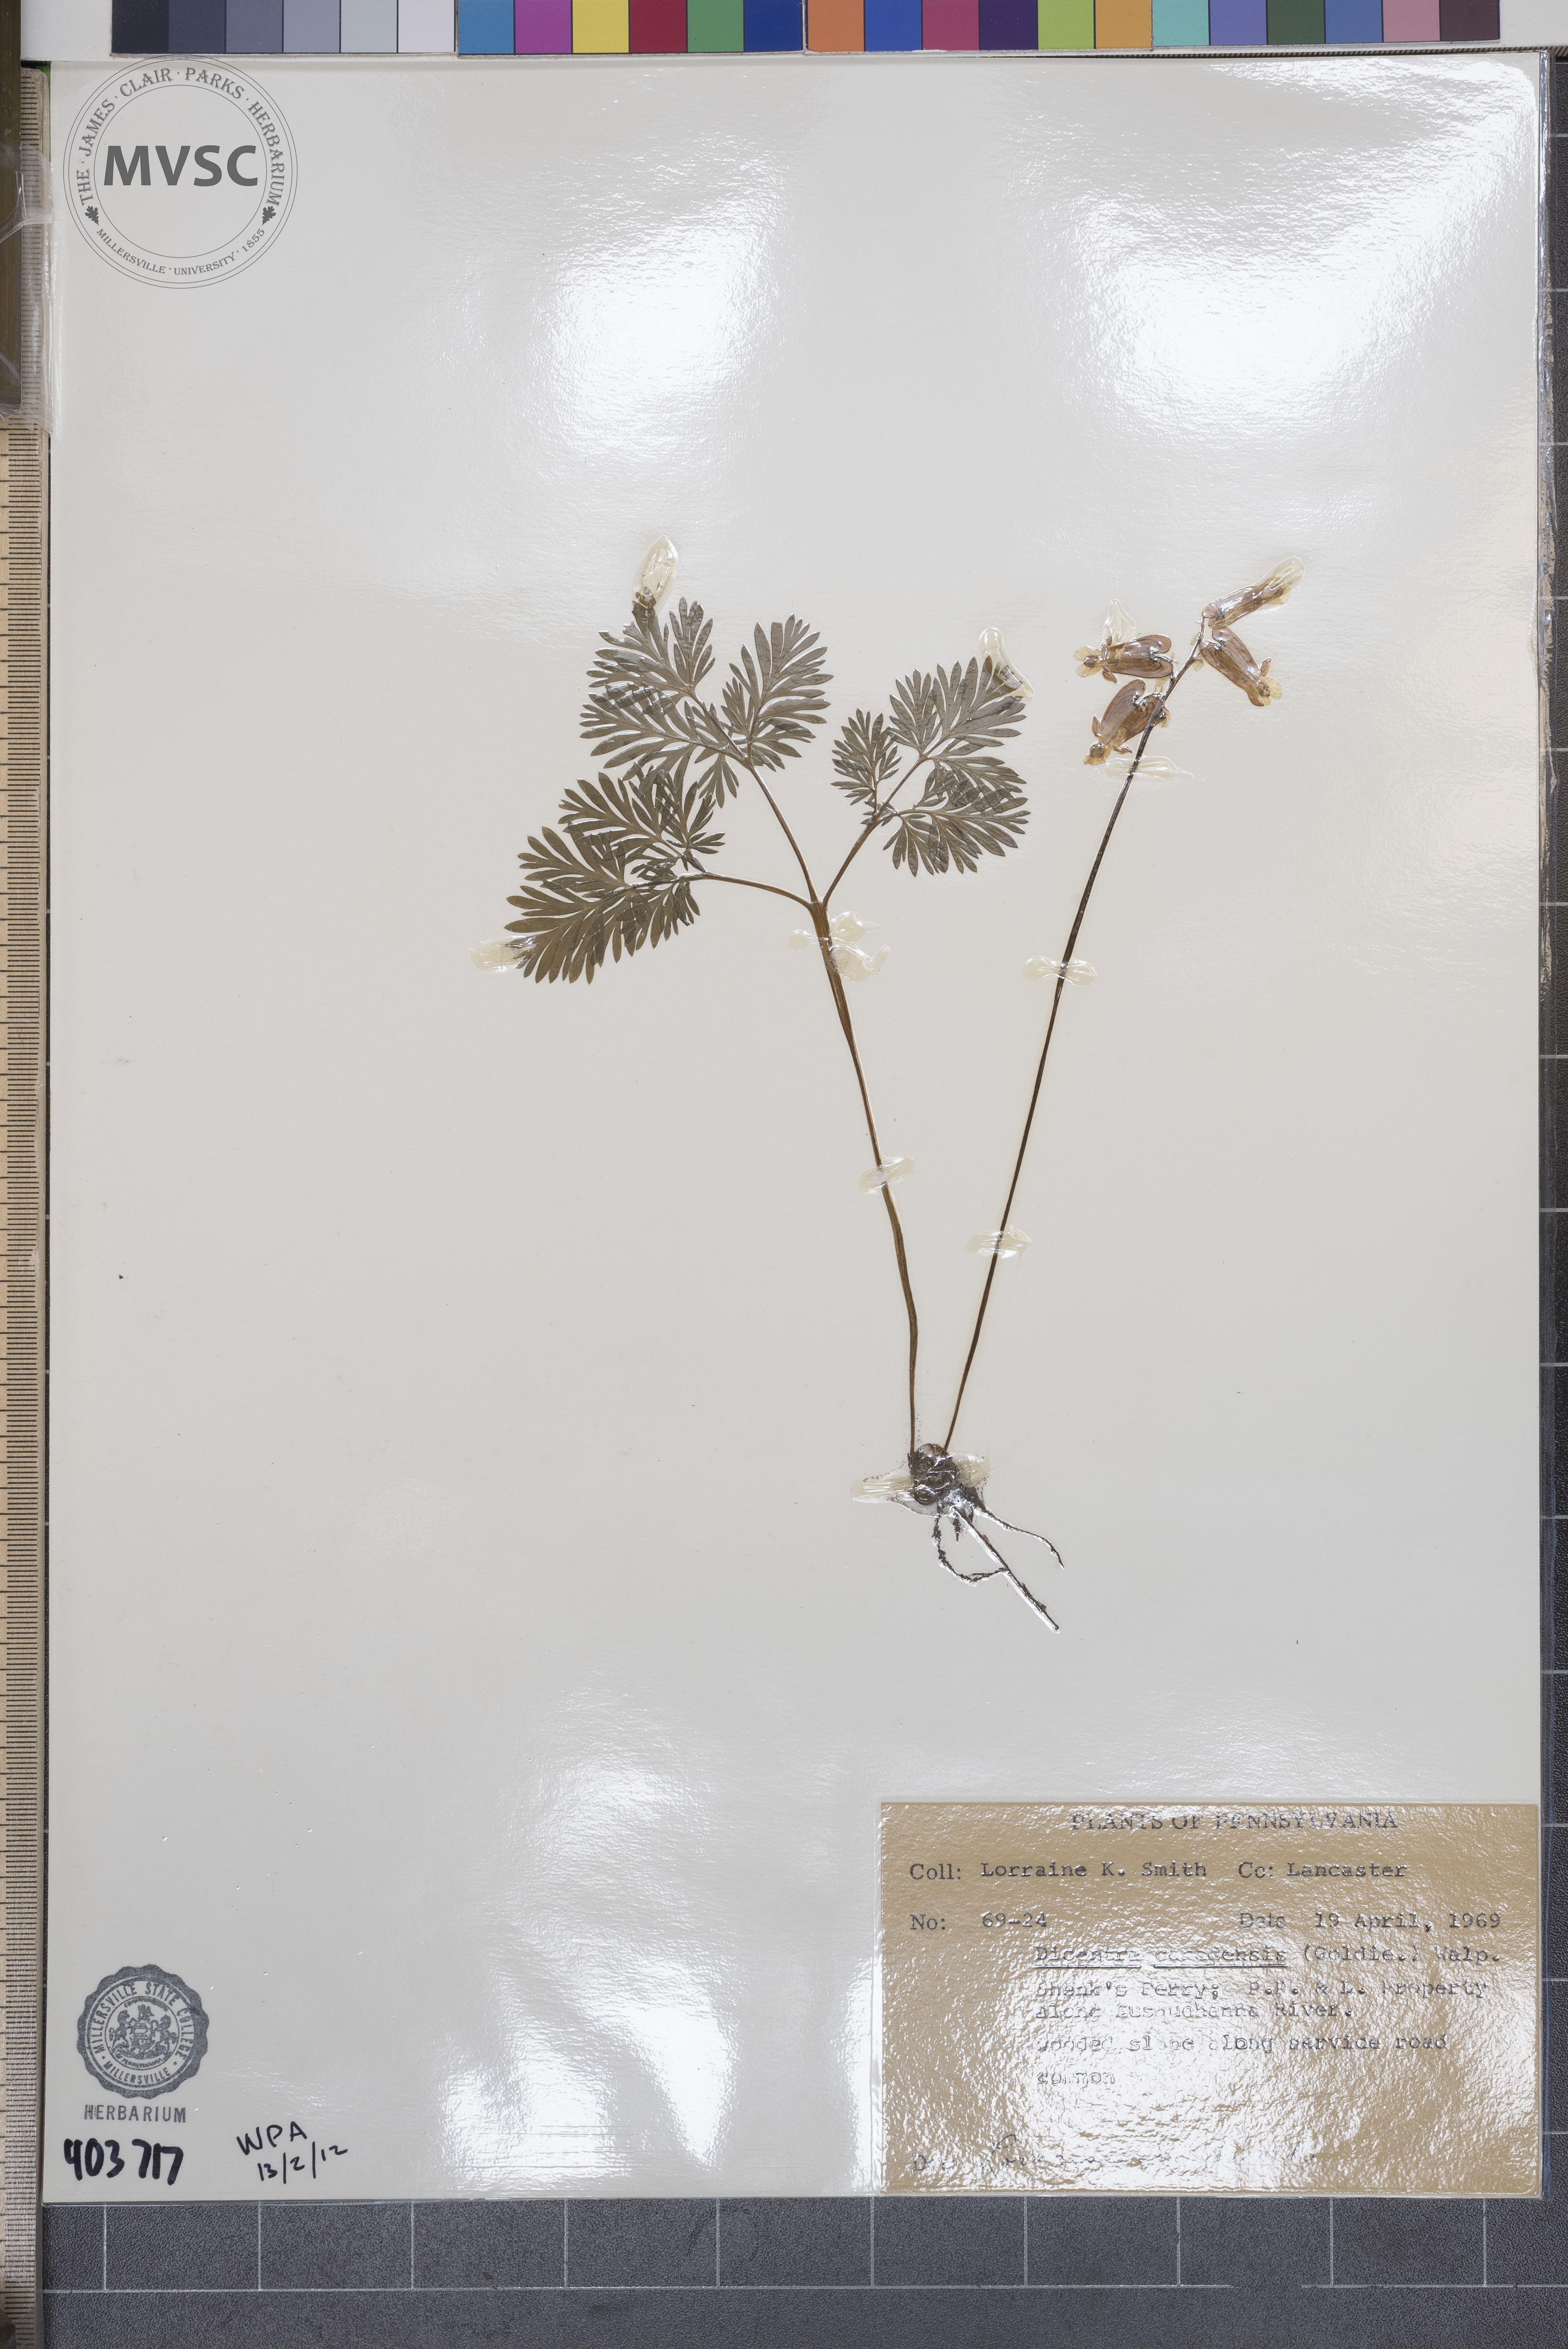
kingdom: Plantae
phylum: Tracheophyta
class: Magnoliopsida
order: Ranunculales
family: Papaveraceae
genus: Dicentra
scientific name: Dicentra canadensis
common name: Squirrel-corn
